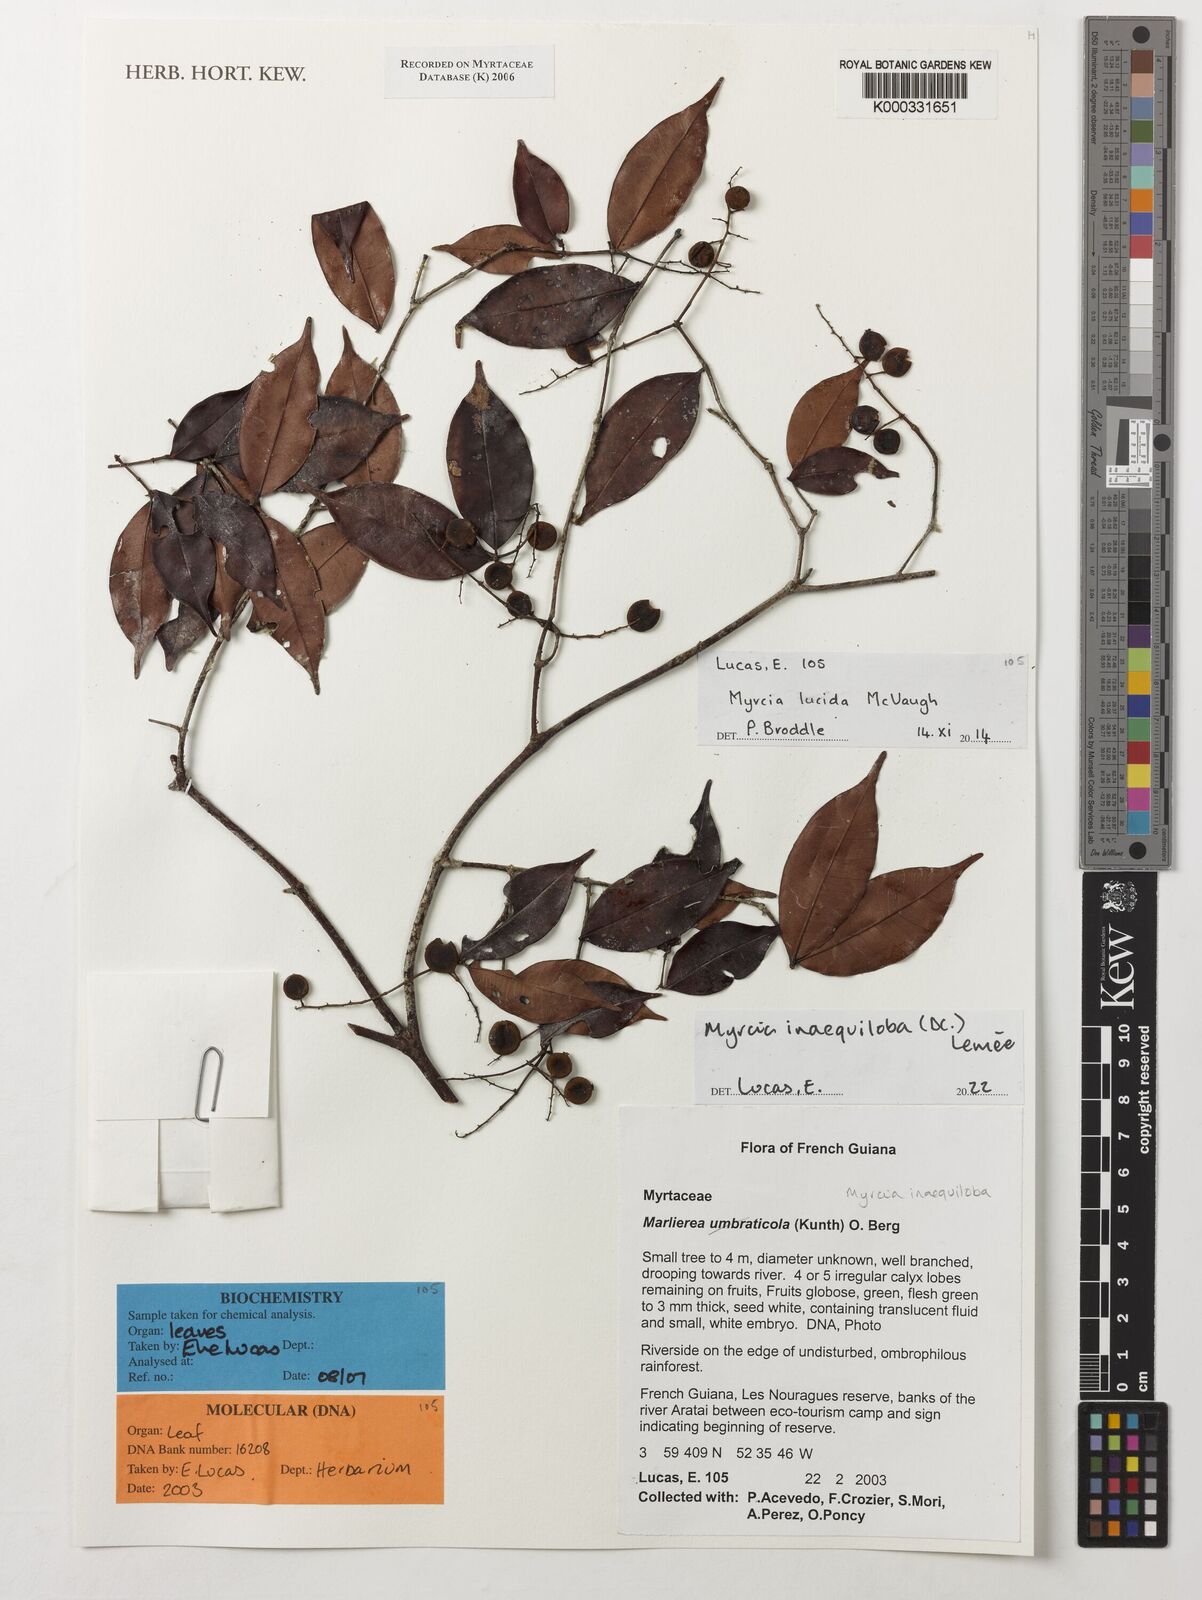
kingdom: Plantae
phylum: Tracheophyta
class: Magnoliopsida
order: Myrtales
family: Myrtaceae
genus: Myrcia
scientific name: Myrcia inaequiloba
